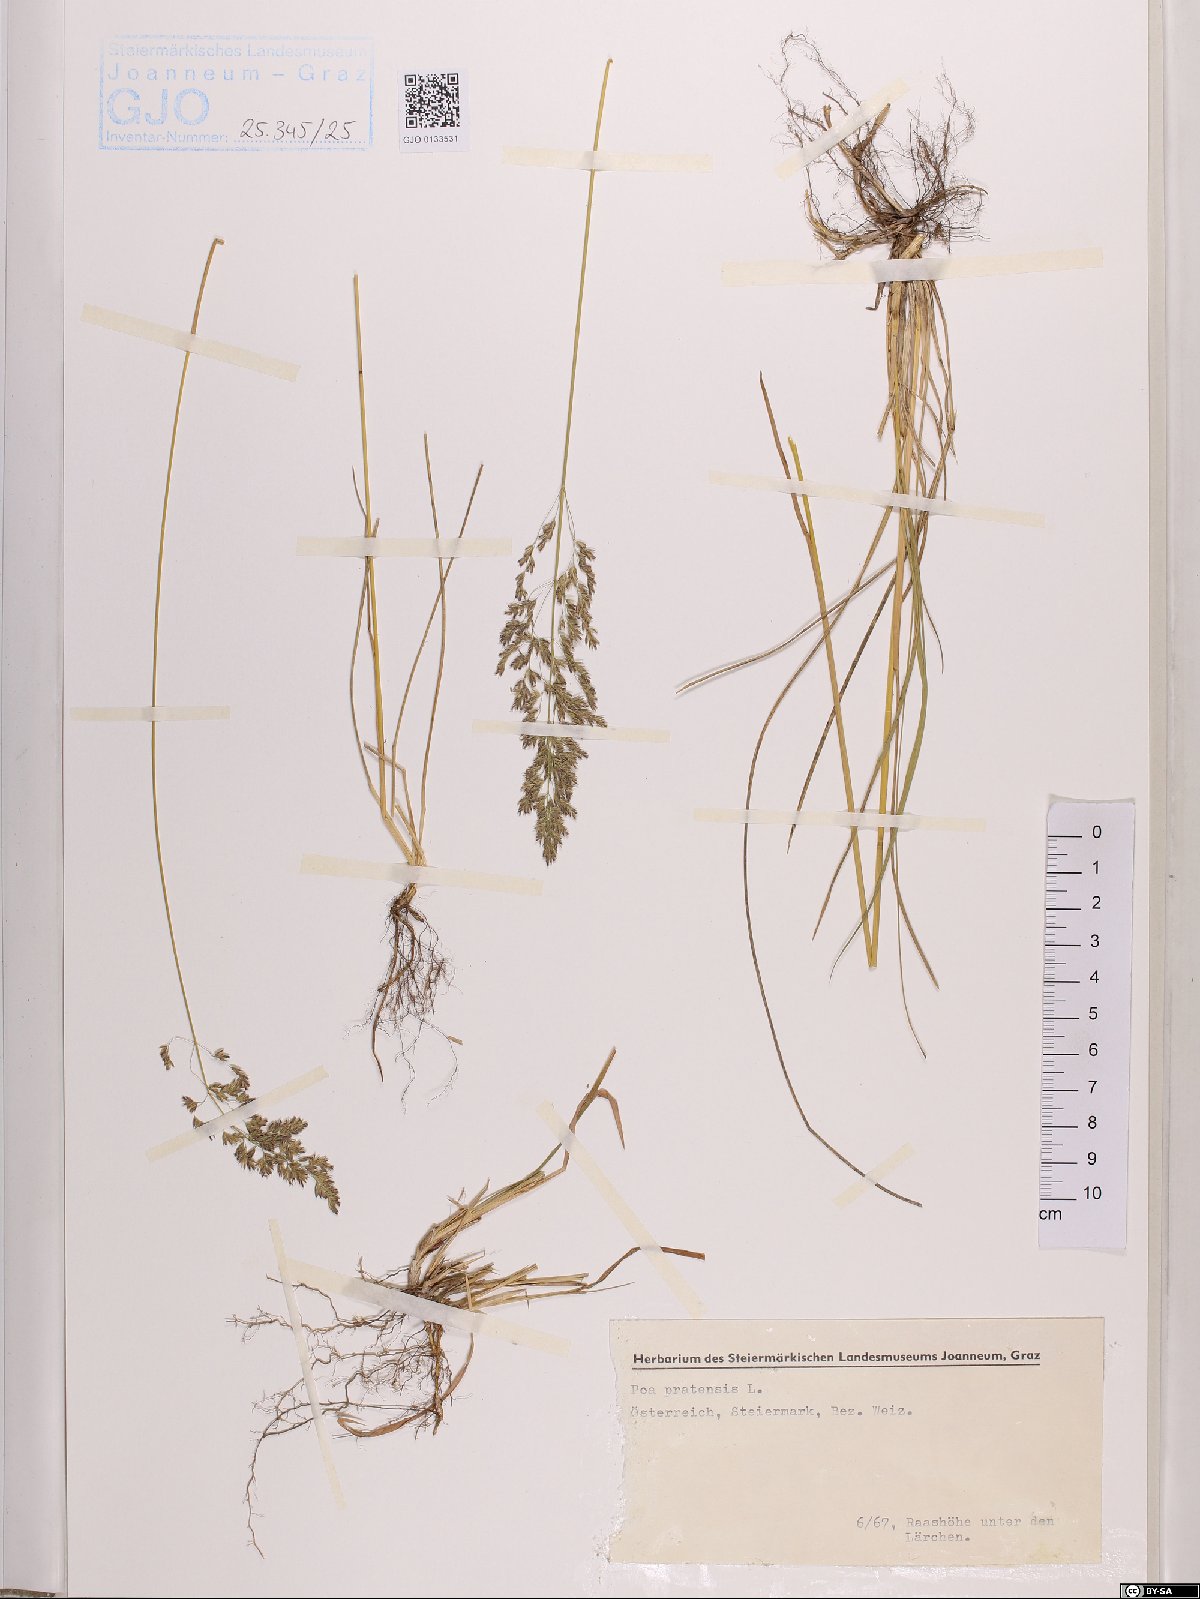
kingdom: Plantae
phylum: Tracheophyta
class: Liliopsida
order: Poales
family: Poaceae
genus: Poa
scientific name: Poa pratensis
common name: Kentucky bluegrass
